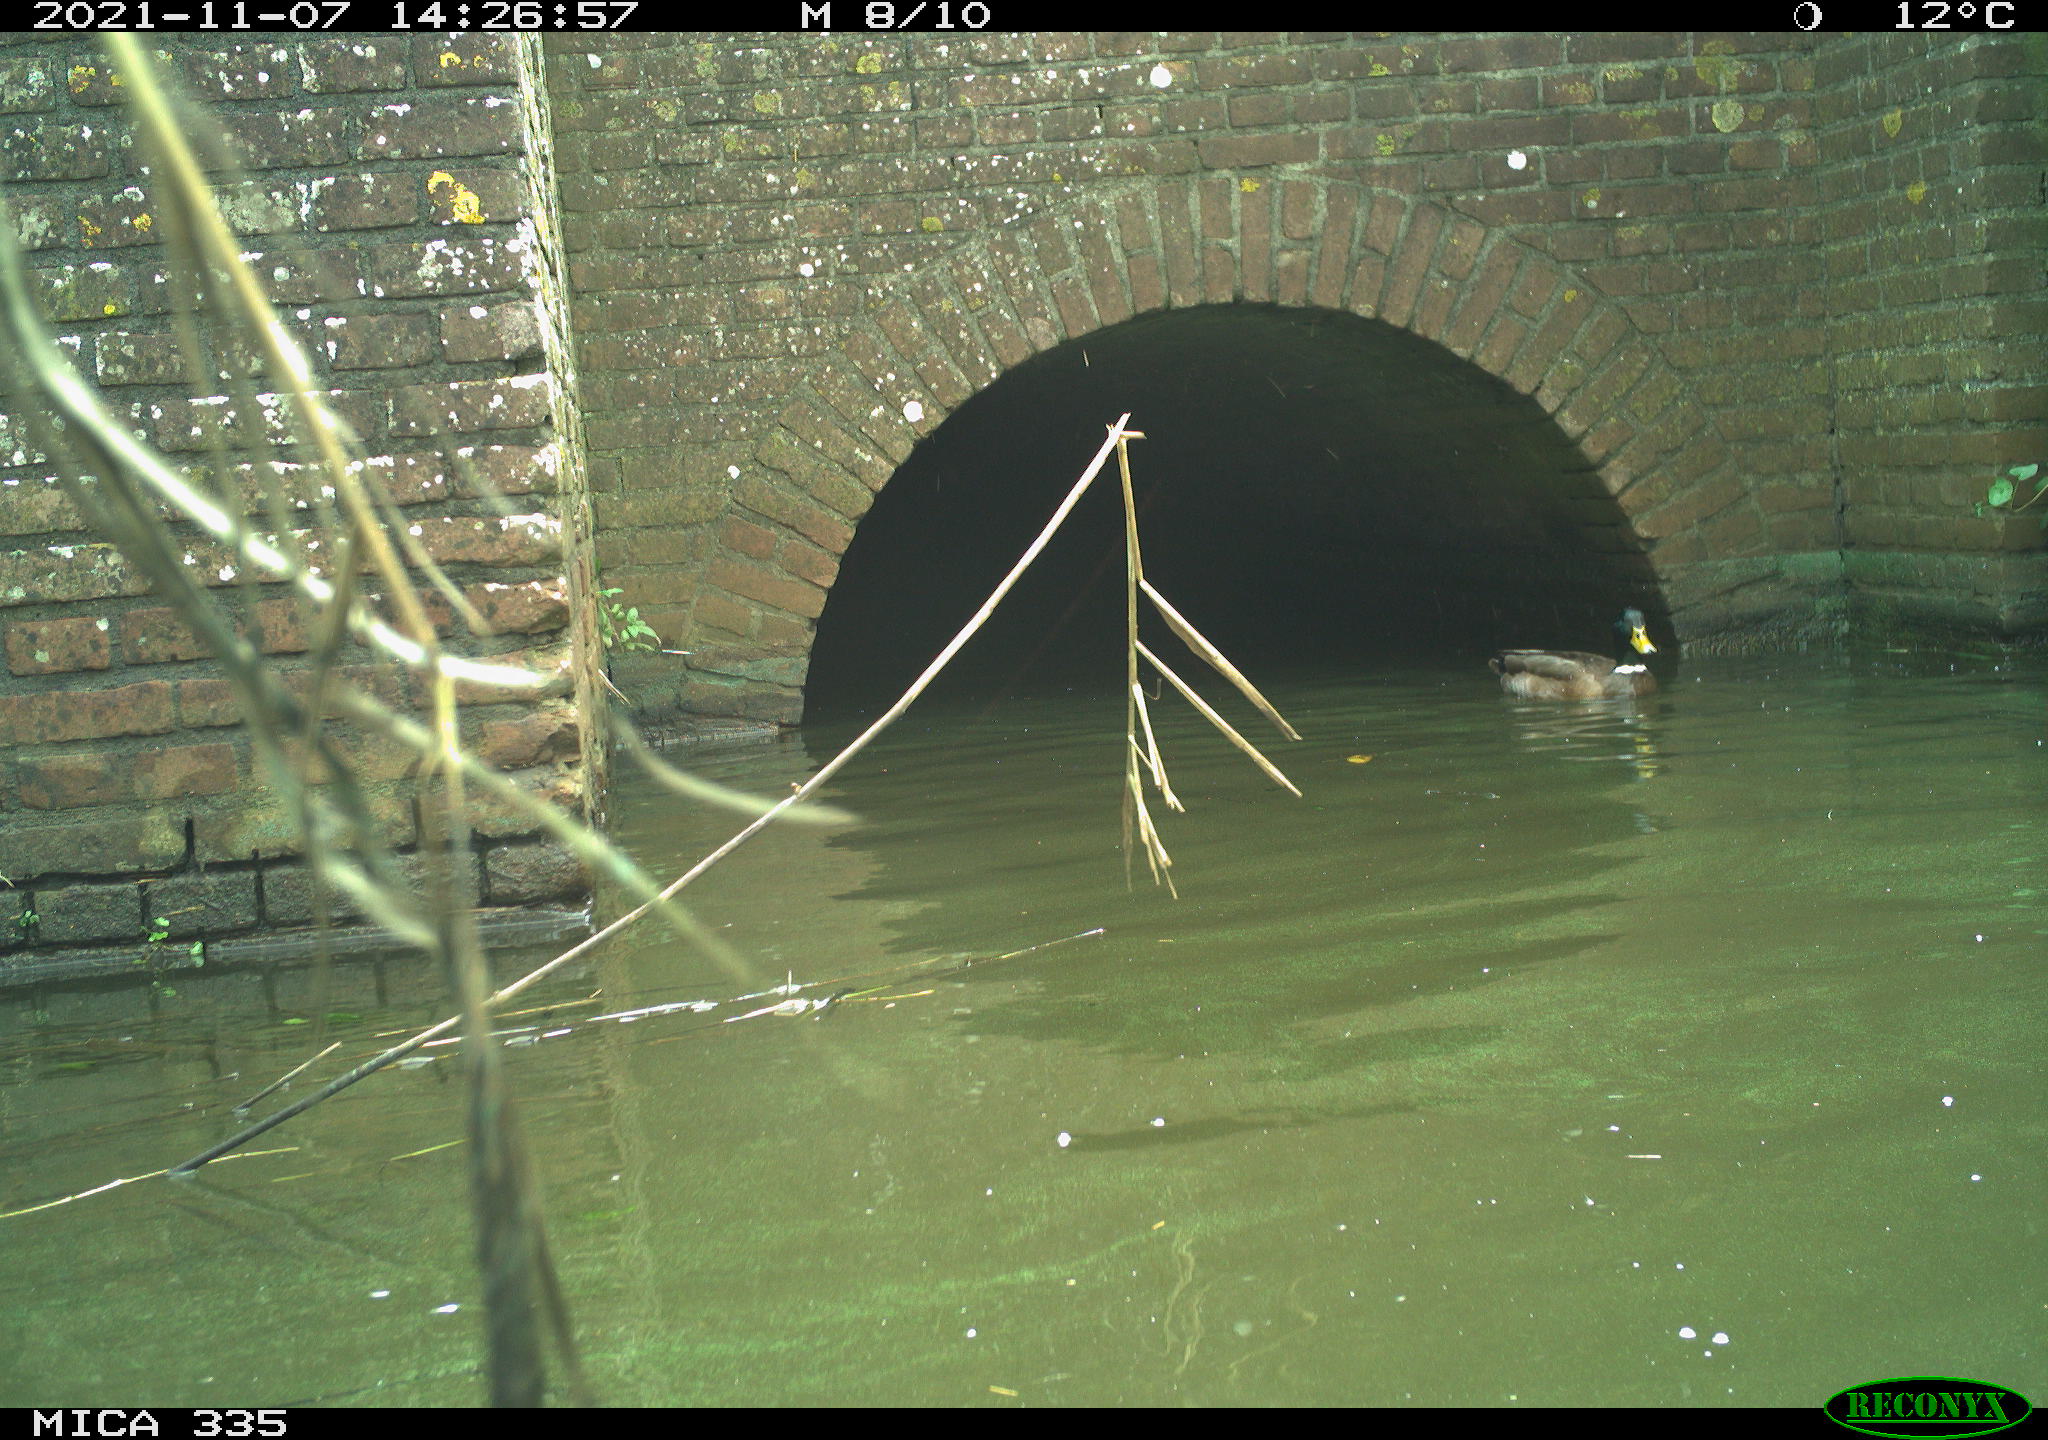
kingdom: Animalia
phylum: Chordata
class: Aves
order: Anseriformes
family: Anatidae
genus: Anas
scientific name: Anas platyrhynchos
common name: Mallard
